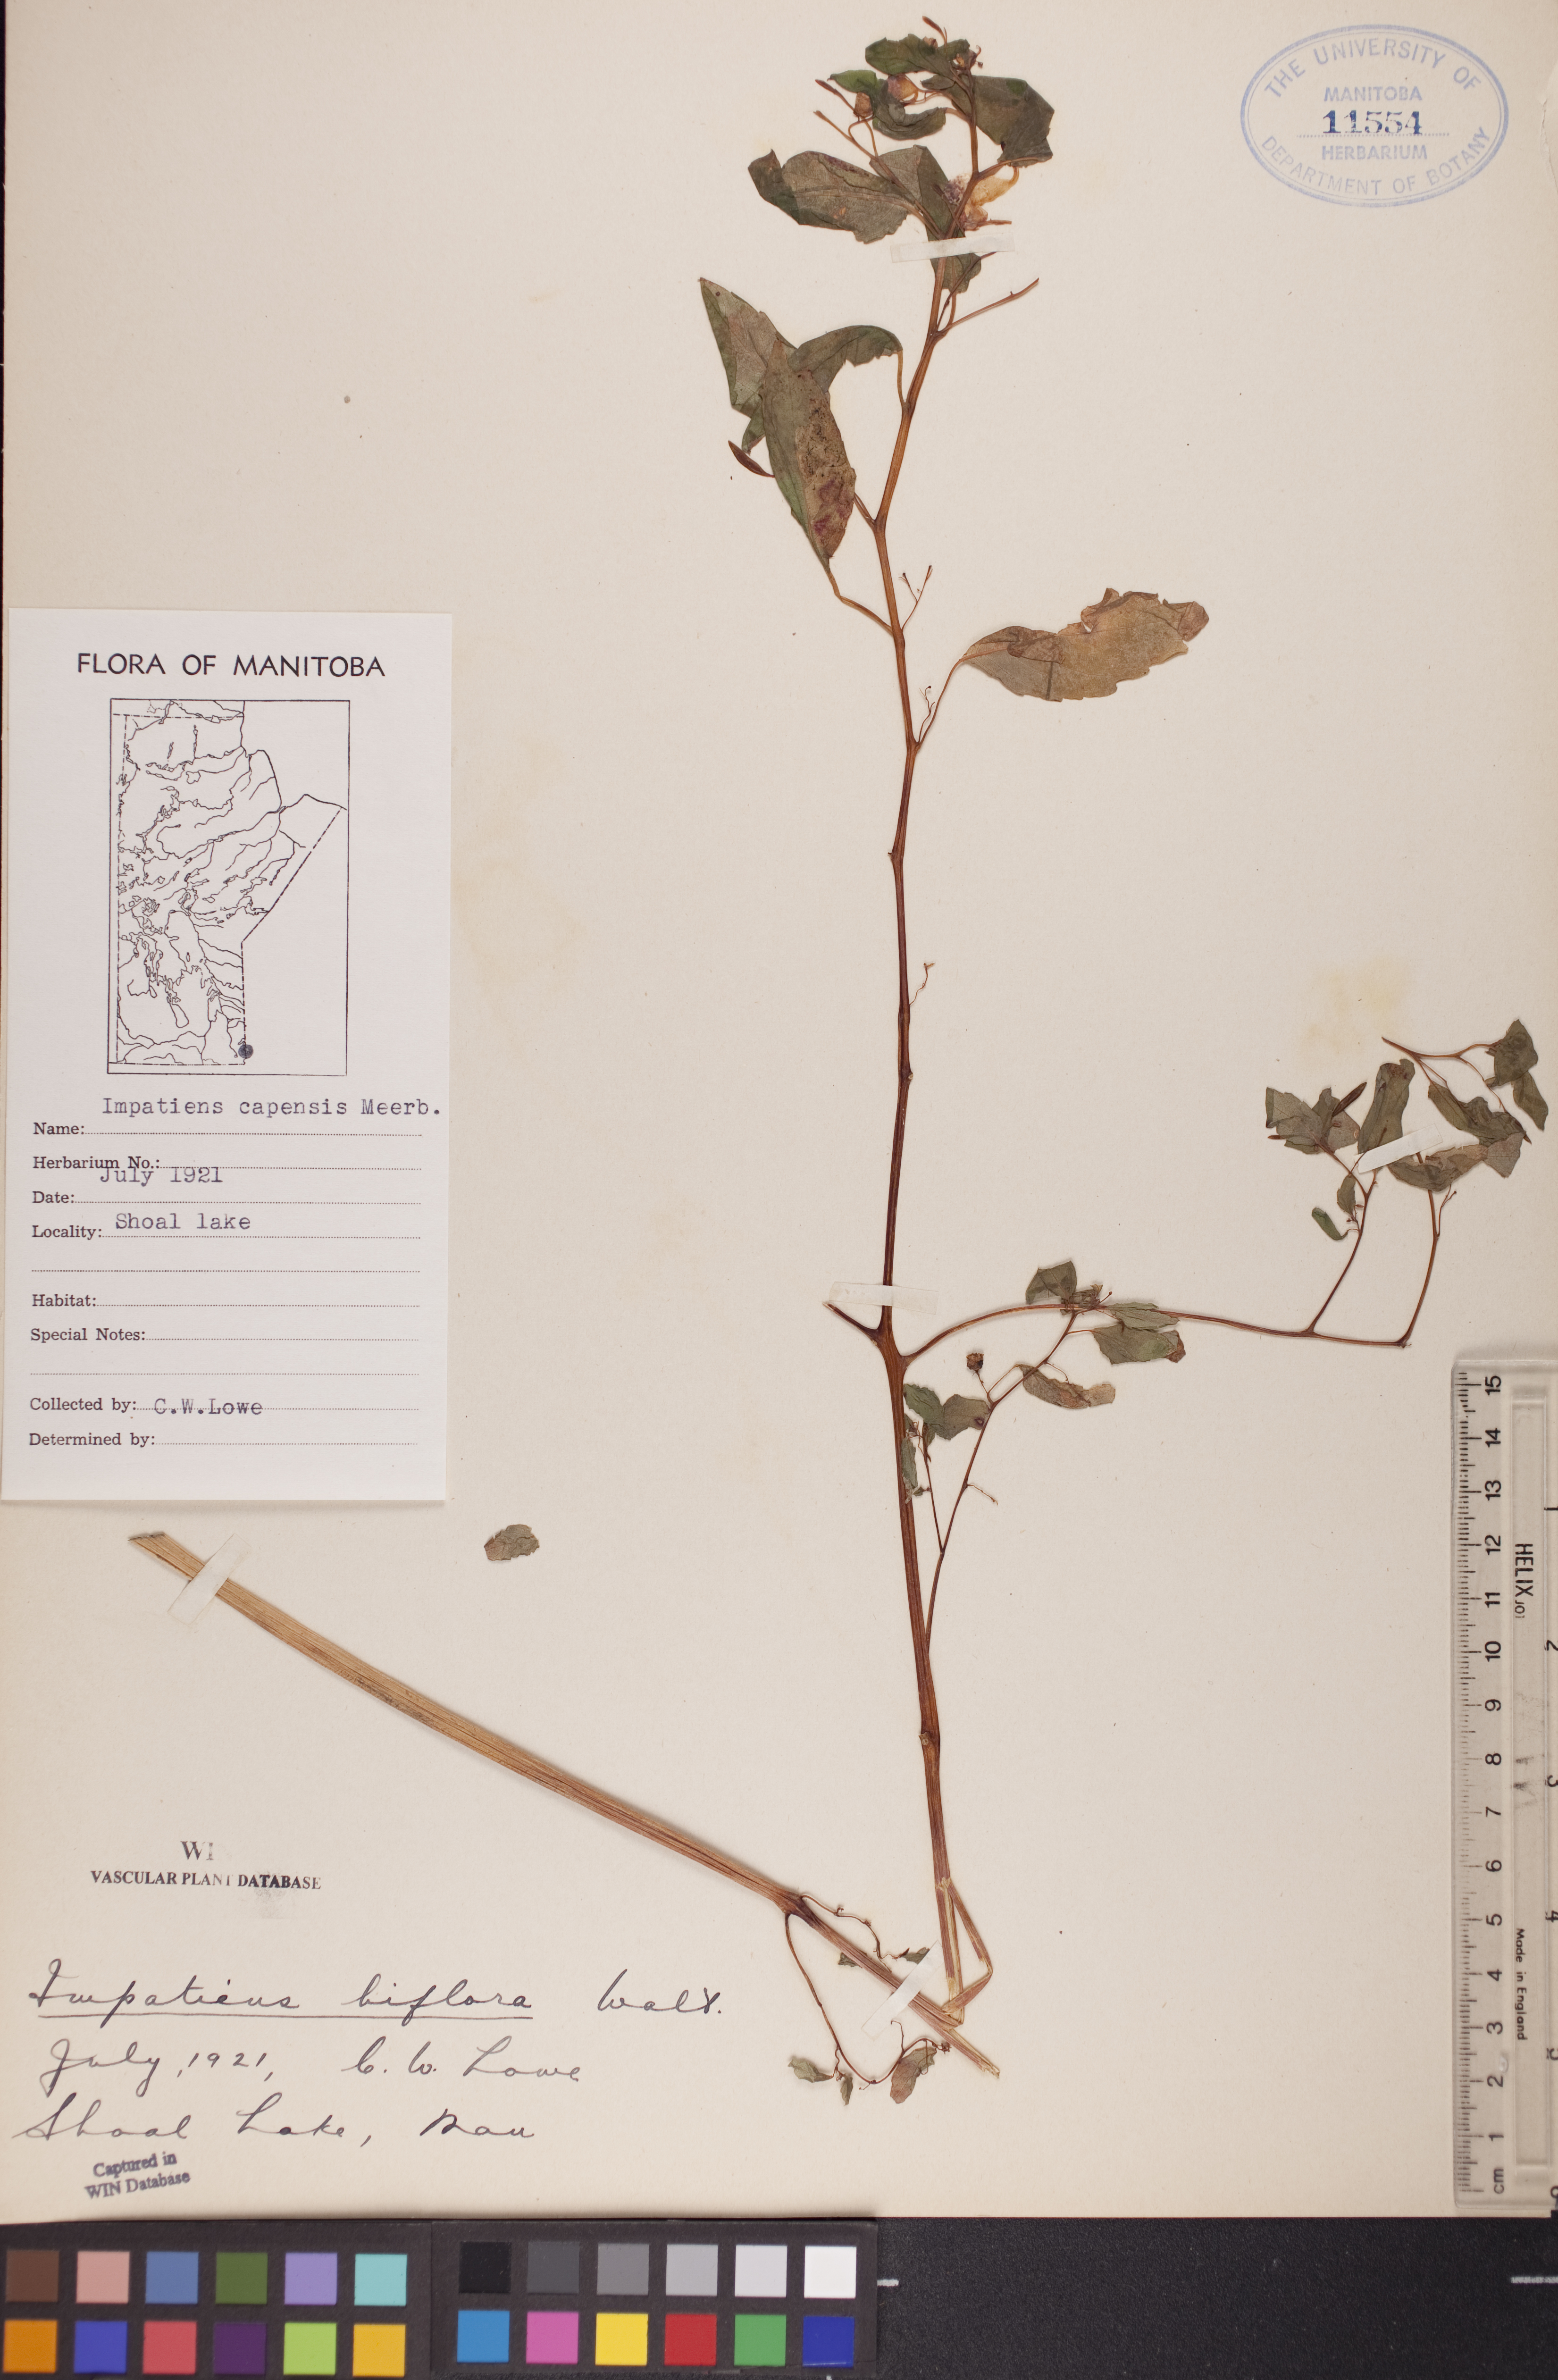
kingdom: Plantae
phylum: Tracheophyta
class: Magnoliopsida
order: Ericales
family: Balsaminaceae
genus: Impatiens
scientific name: Impatiens capensis
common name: Orange balsam
